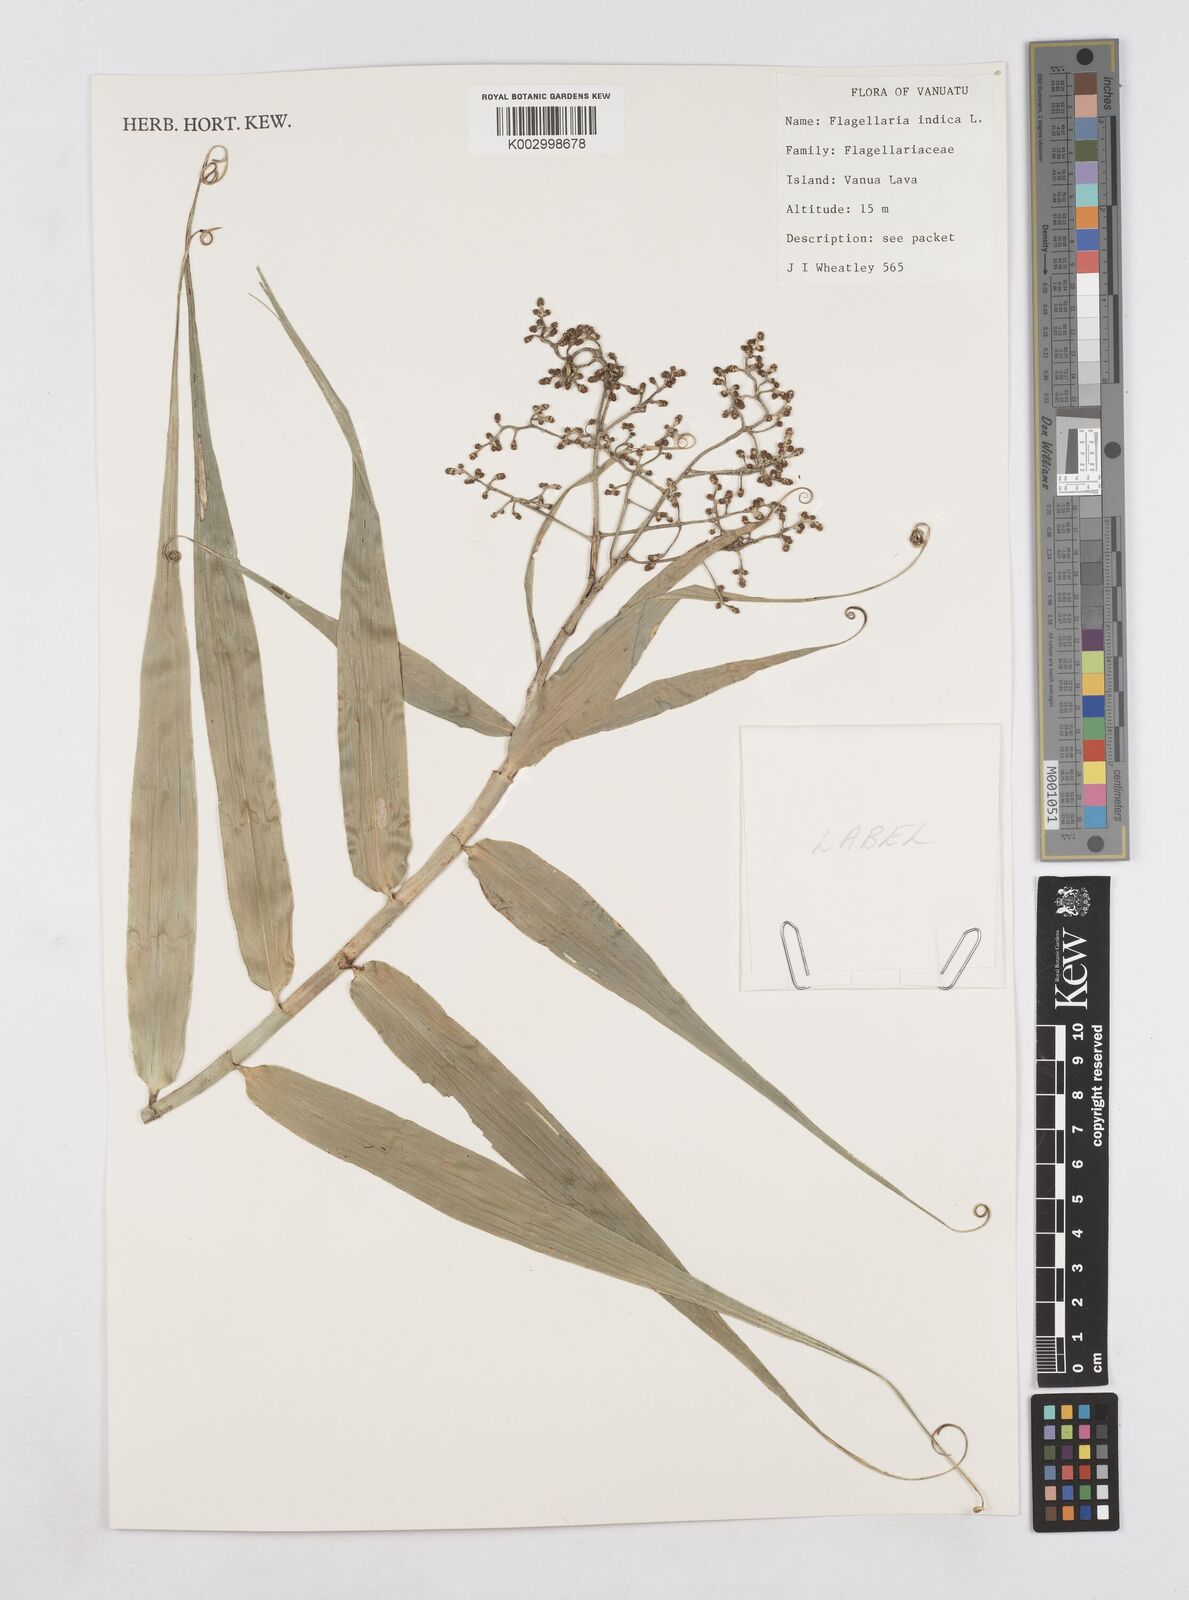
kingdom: Plantae
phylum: Tracheophyta
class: Liliopsida
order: Poales
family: Flagellariaceae
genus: Flagellaria
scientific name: Flagellaria indica
